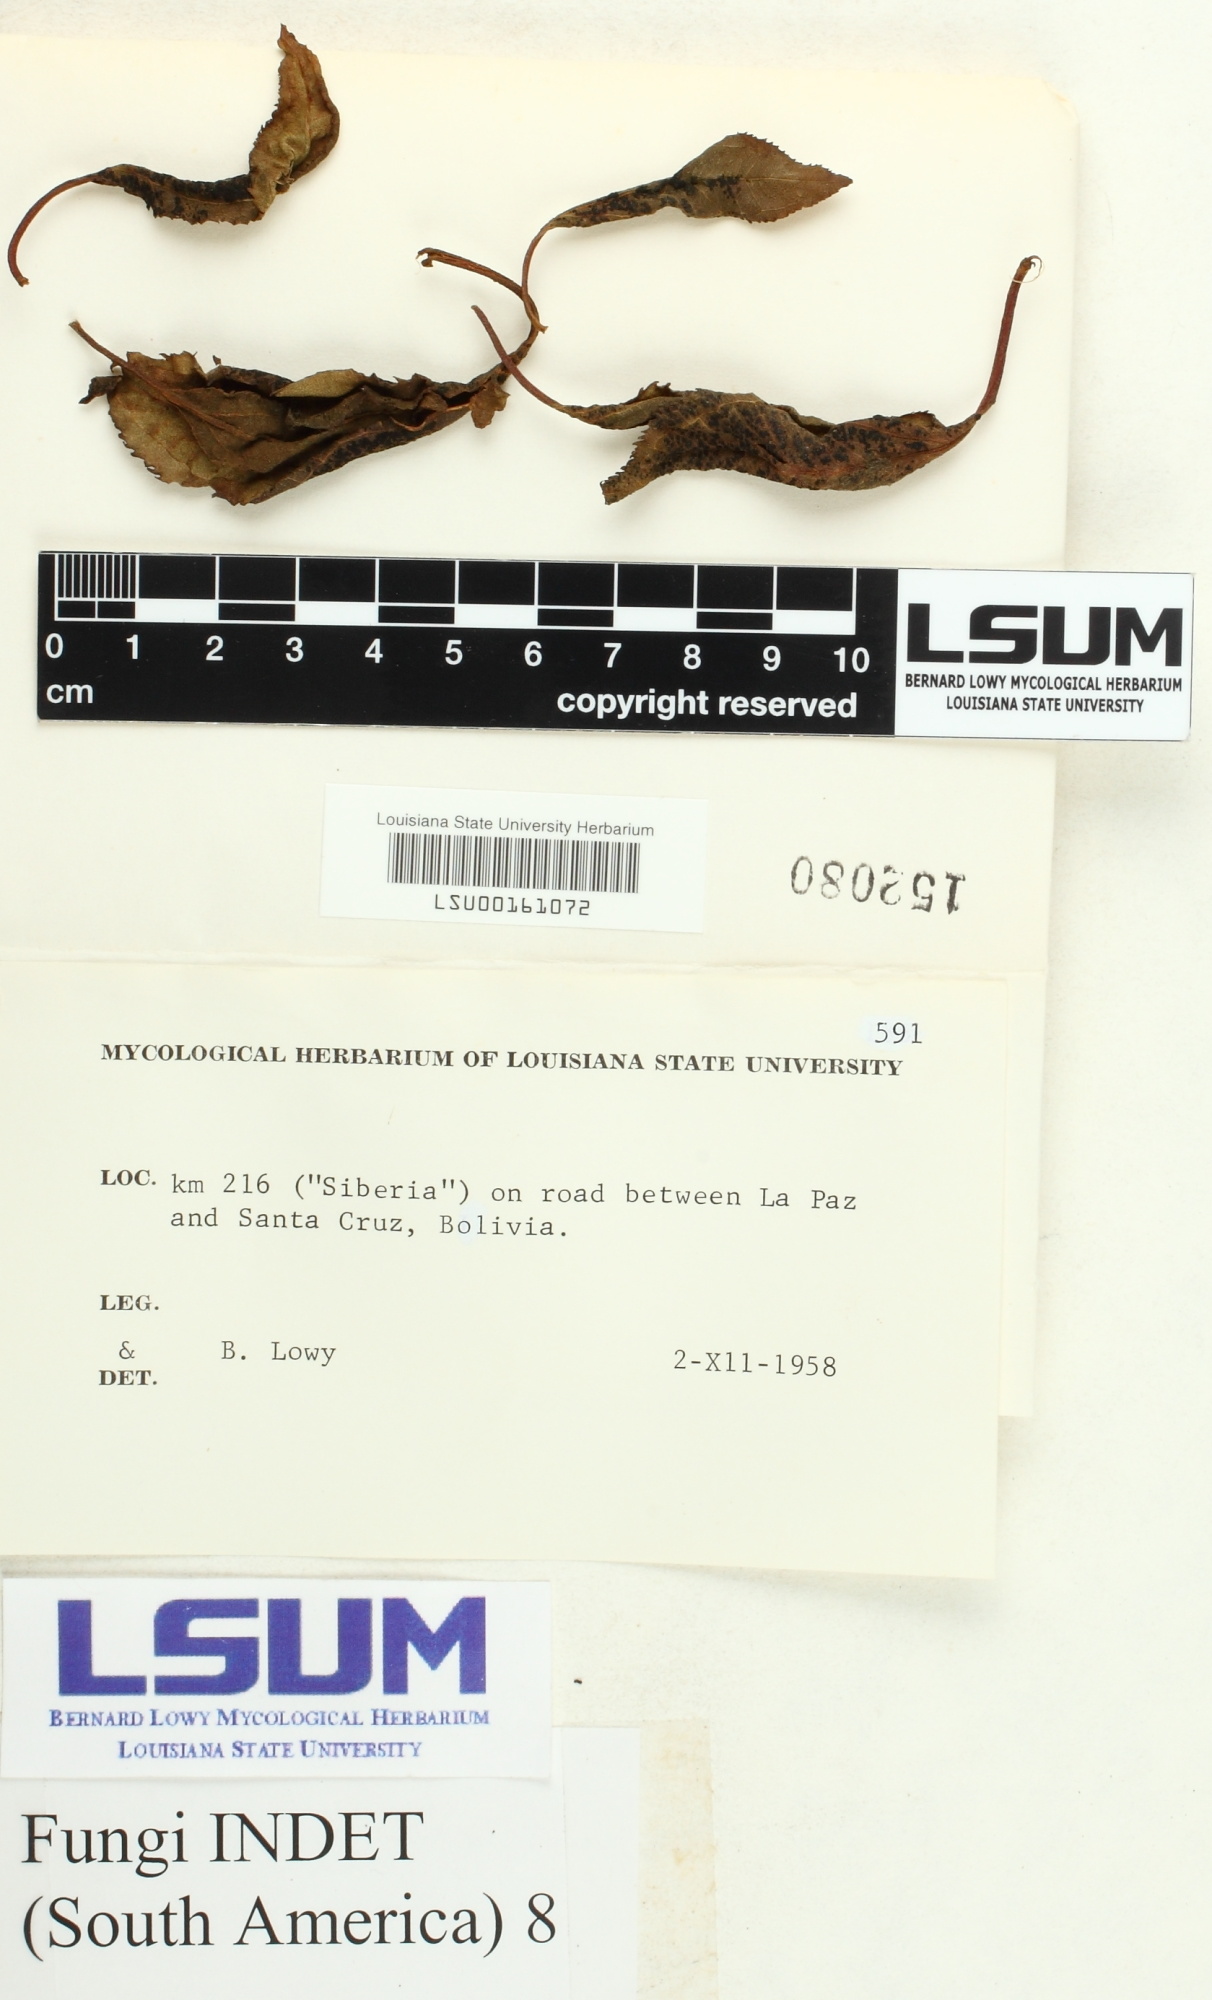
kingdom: Fungi
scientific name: Fungi
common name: Fungi
